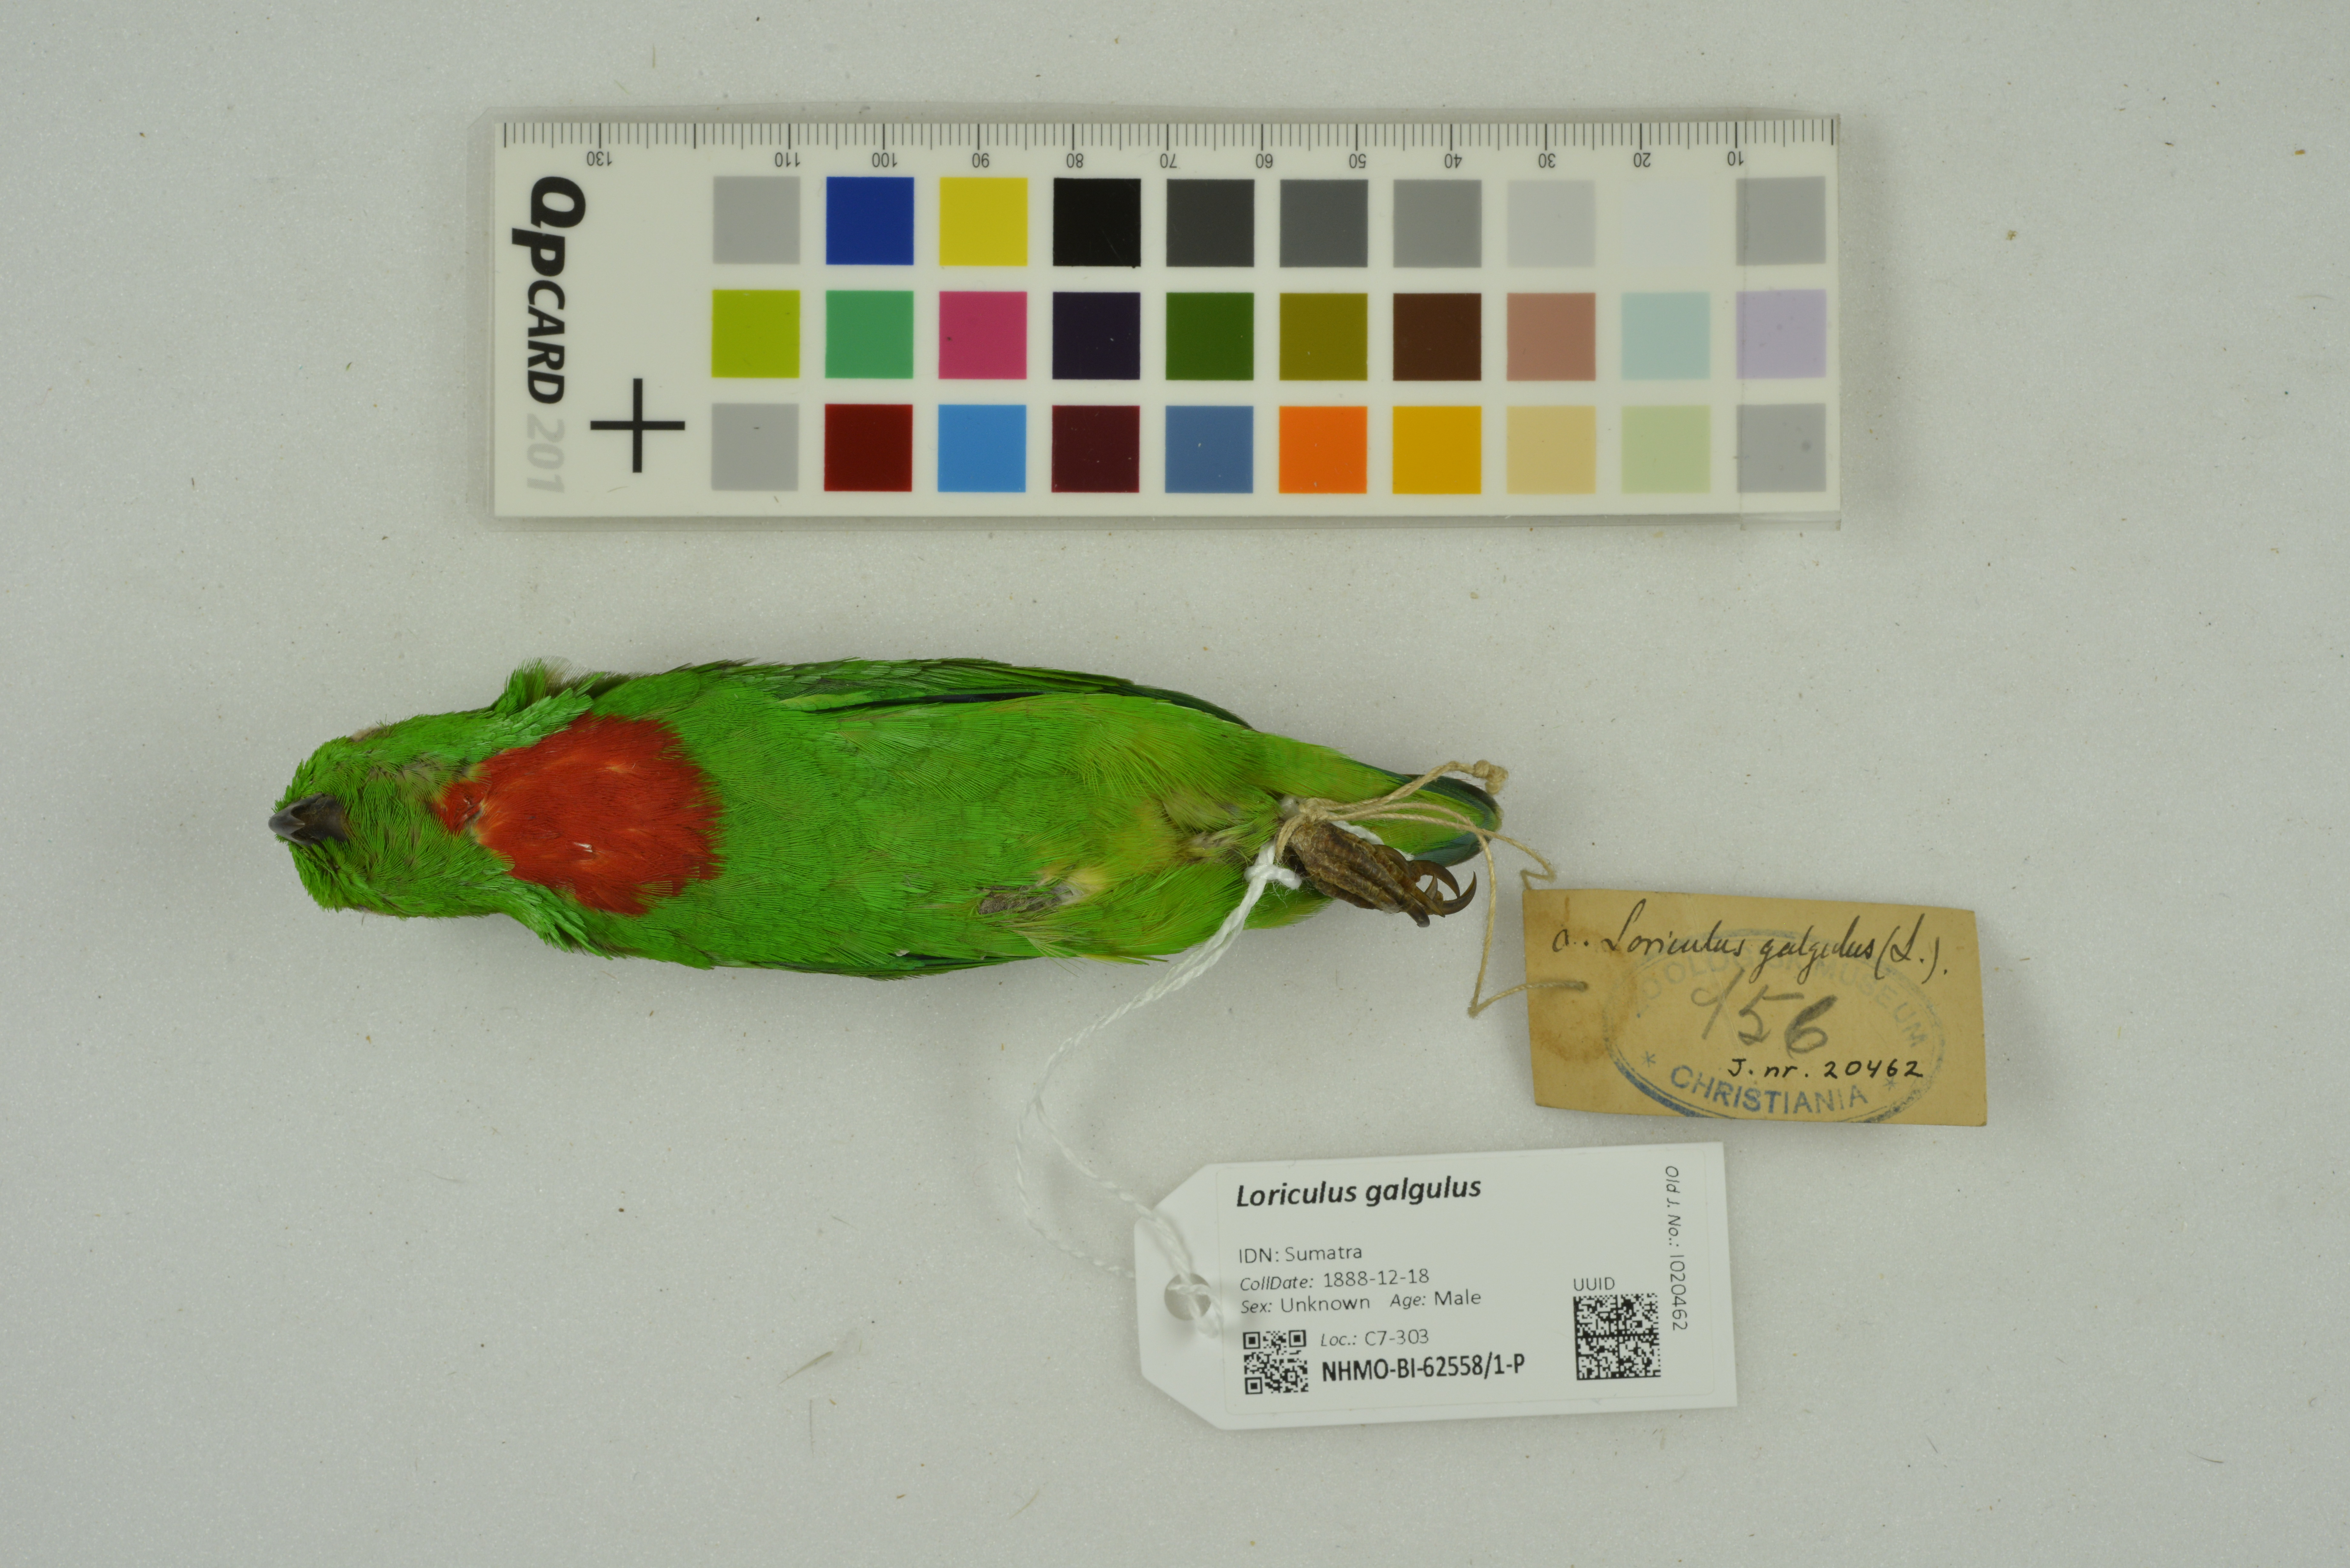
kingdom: Animalia
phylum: Chordata
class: Aves
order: Psittaciformes
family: Psittacidae
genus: Loriculus
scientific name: Loriculus galgulus
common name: Blue-crowned hanging parrot
